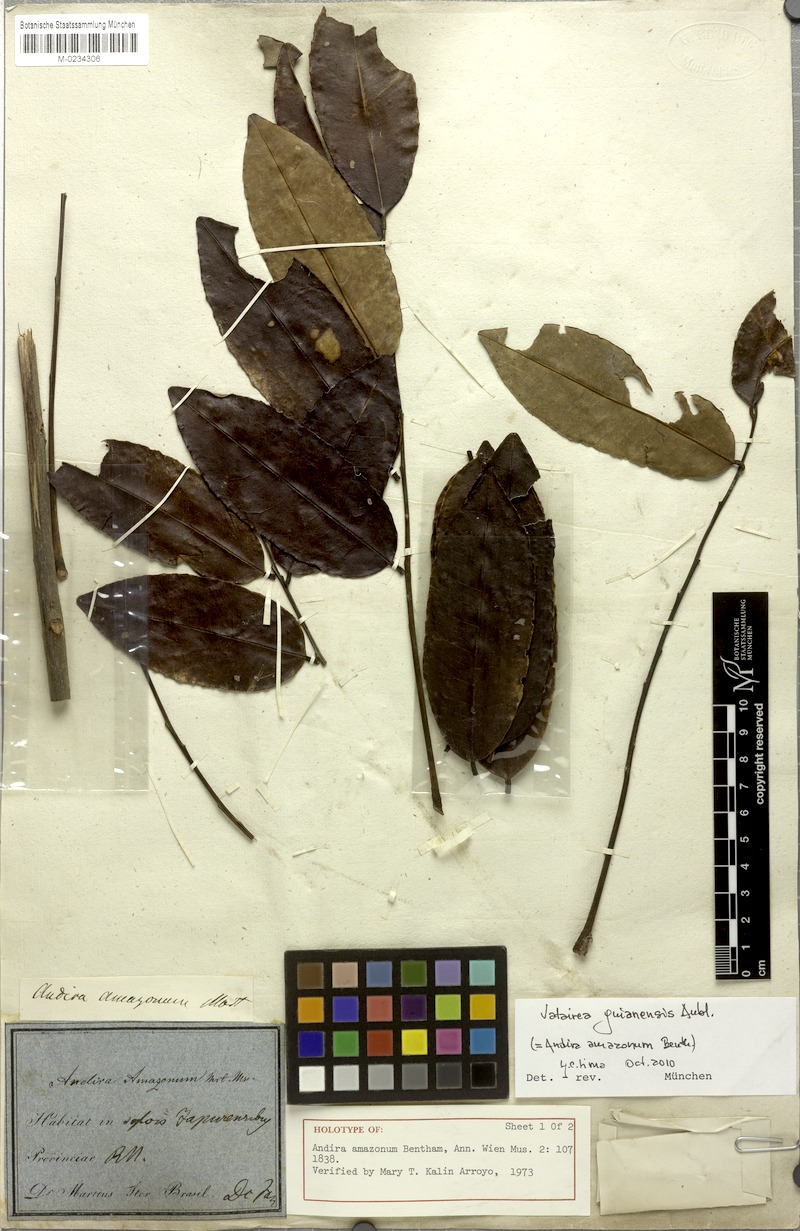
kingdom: Plantae
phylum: Tracheophyta
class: Magnoliopsida
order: Fabales
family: Fabaceae
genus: Vatairea
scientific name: Vatairea guianensis
